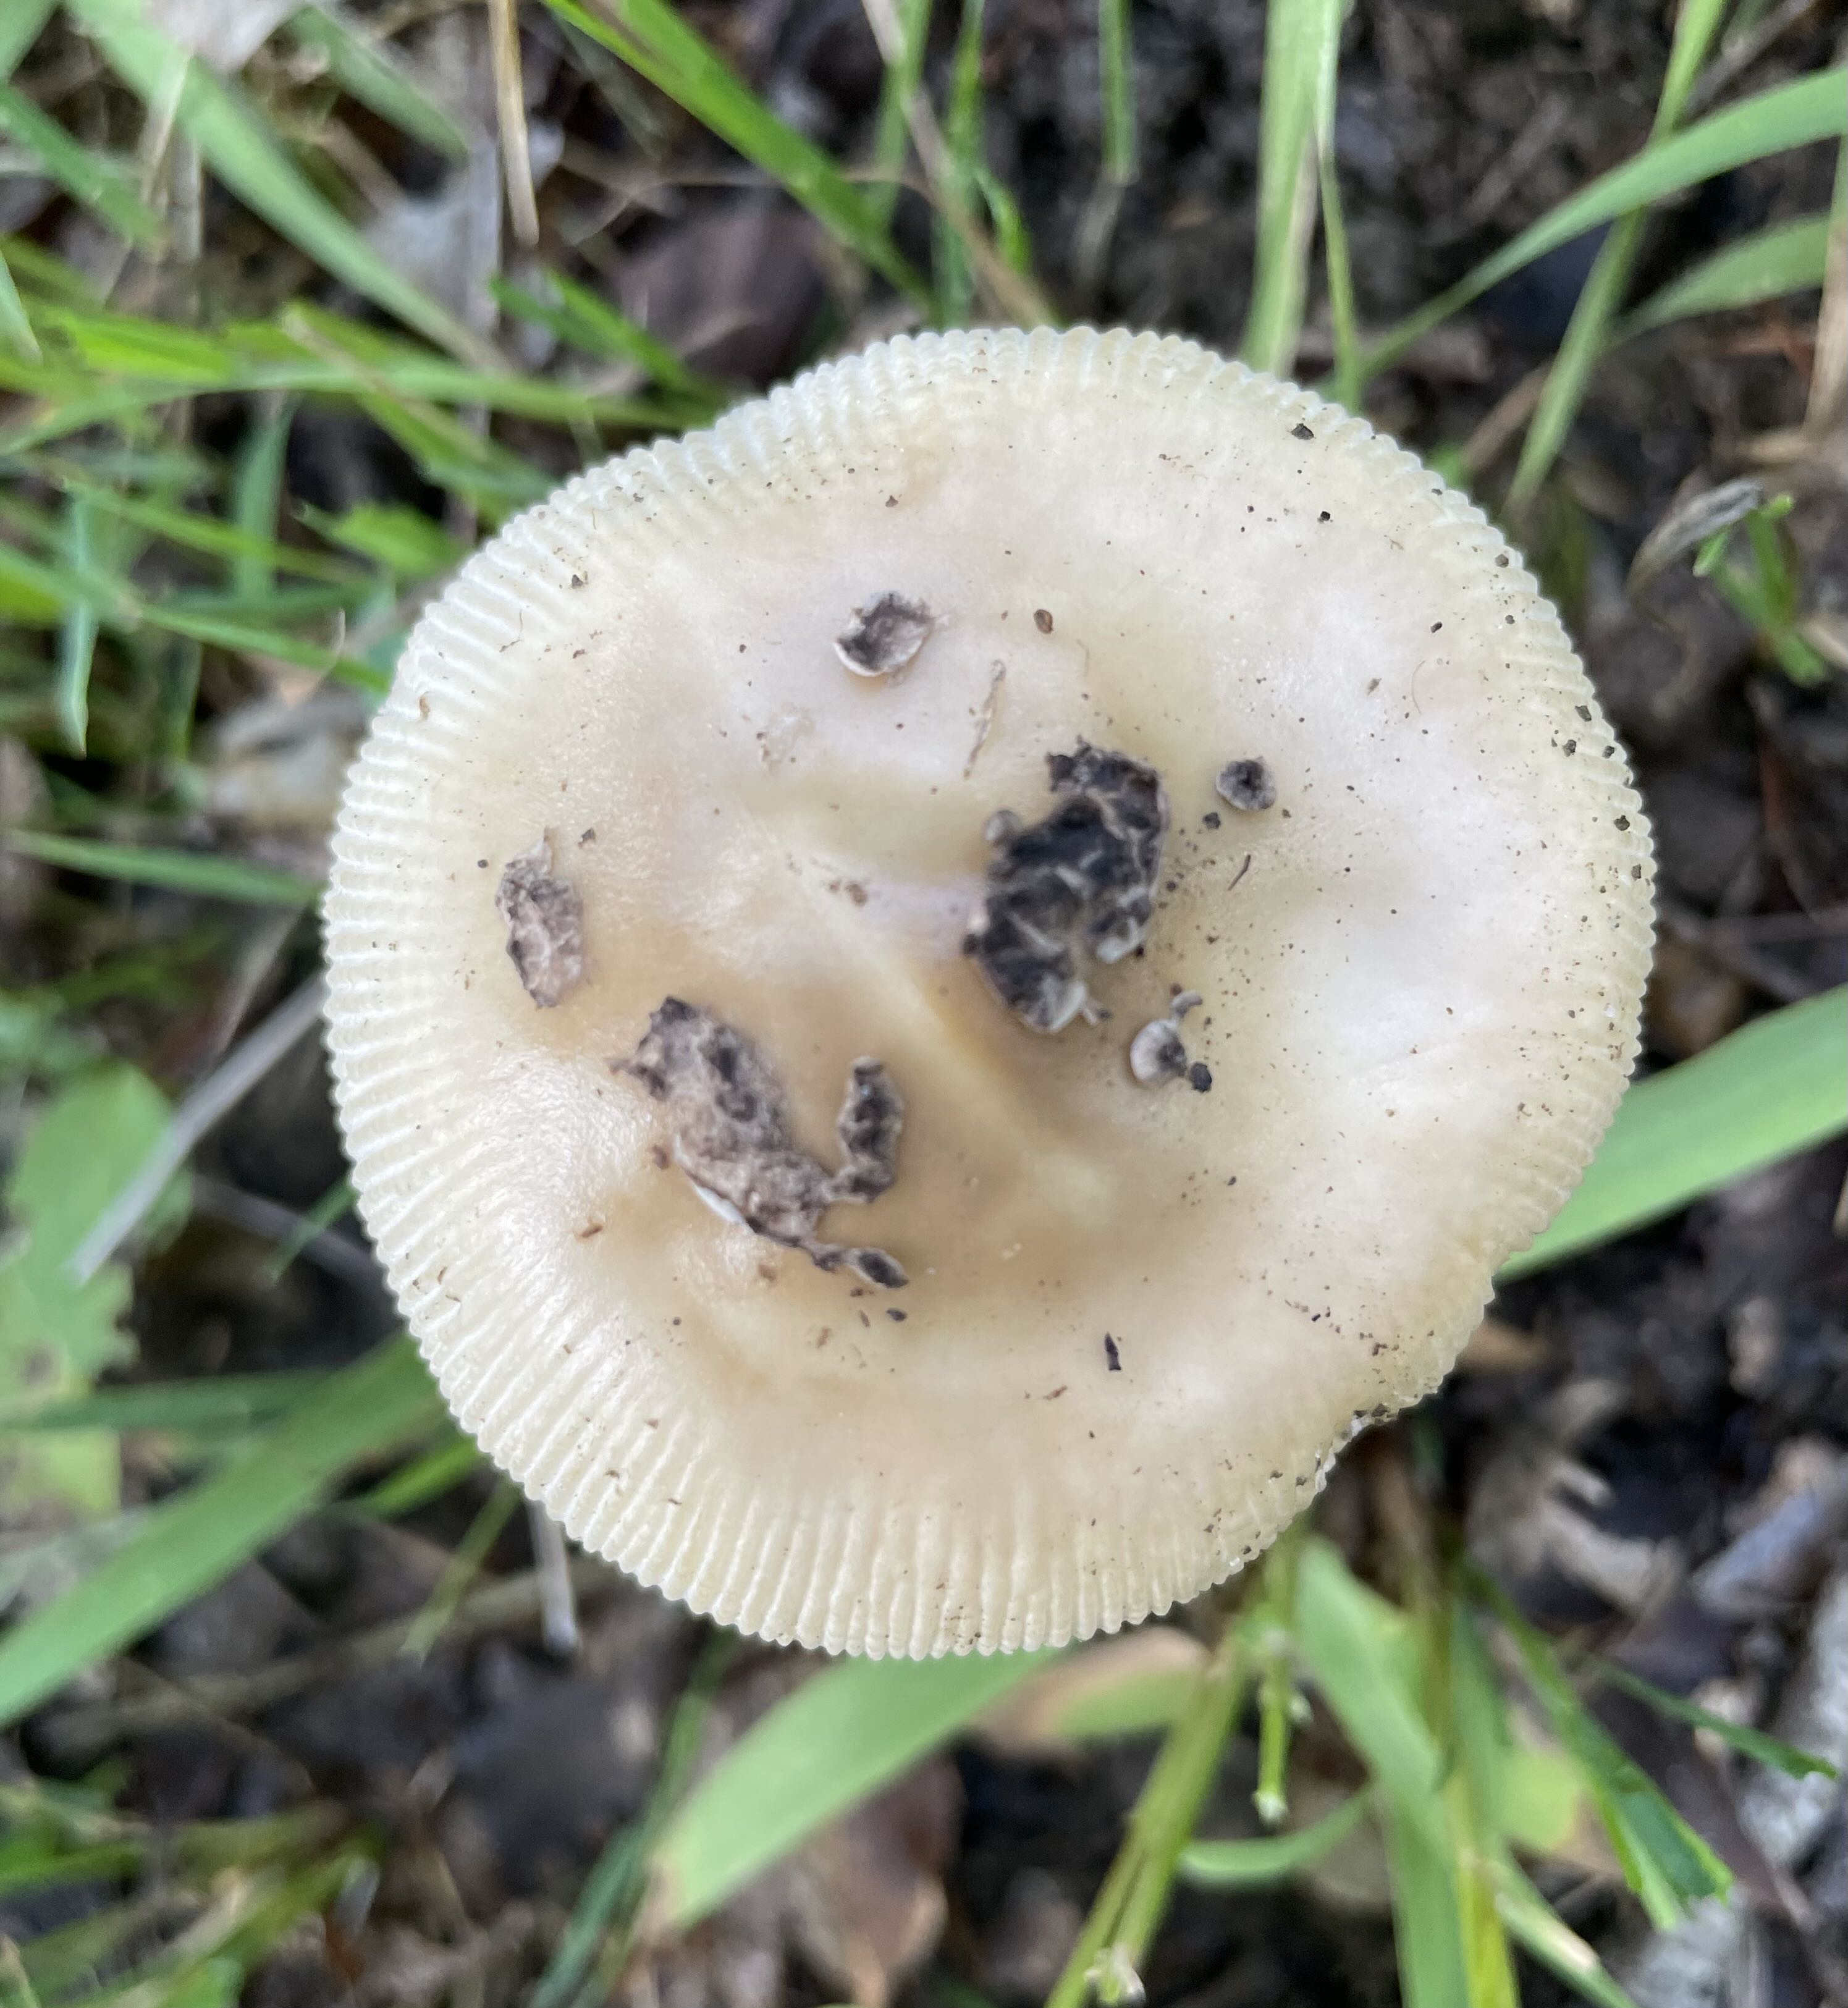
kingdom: Fungi
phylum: Basidiomycota
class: Agaricomycetes
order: Agaricales
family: Amanitaceae
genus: Amanita
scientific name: Amanita ceciliae
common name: stor kam-fluesvamp
